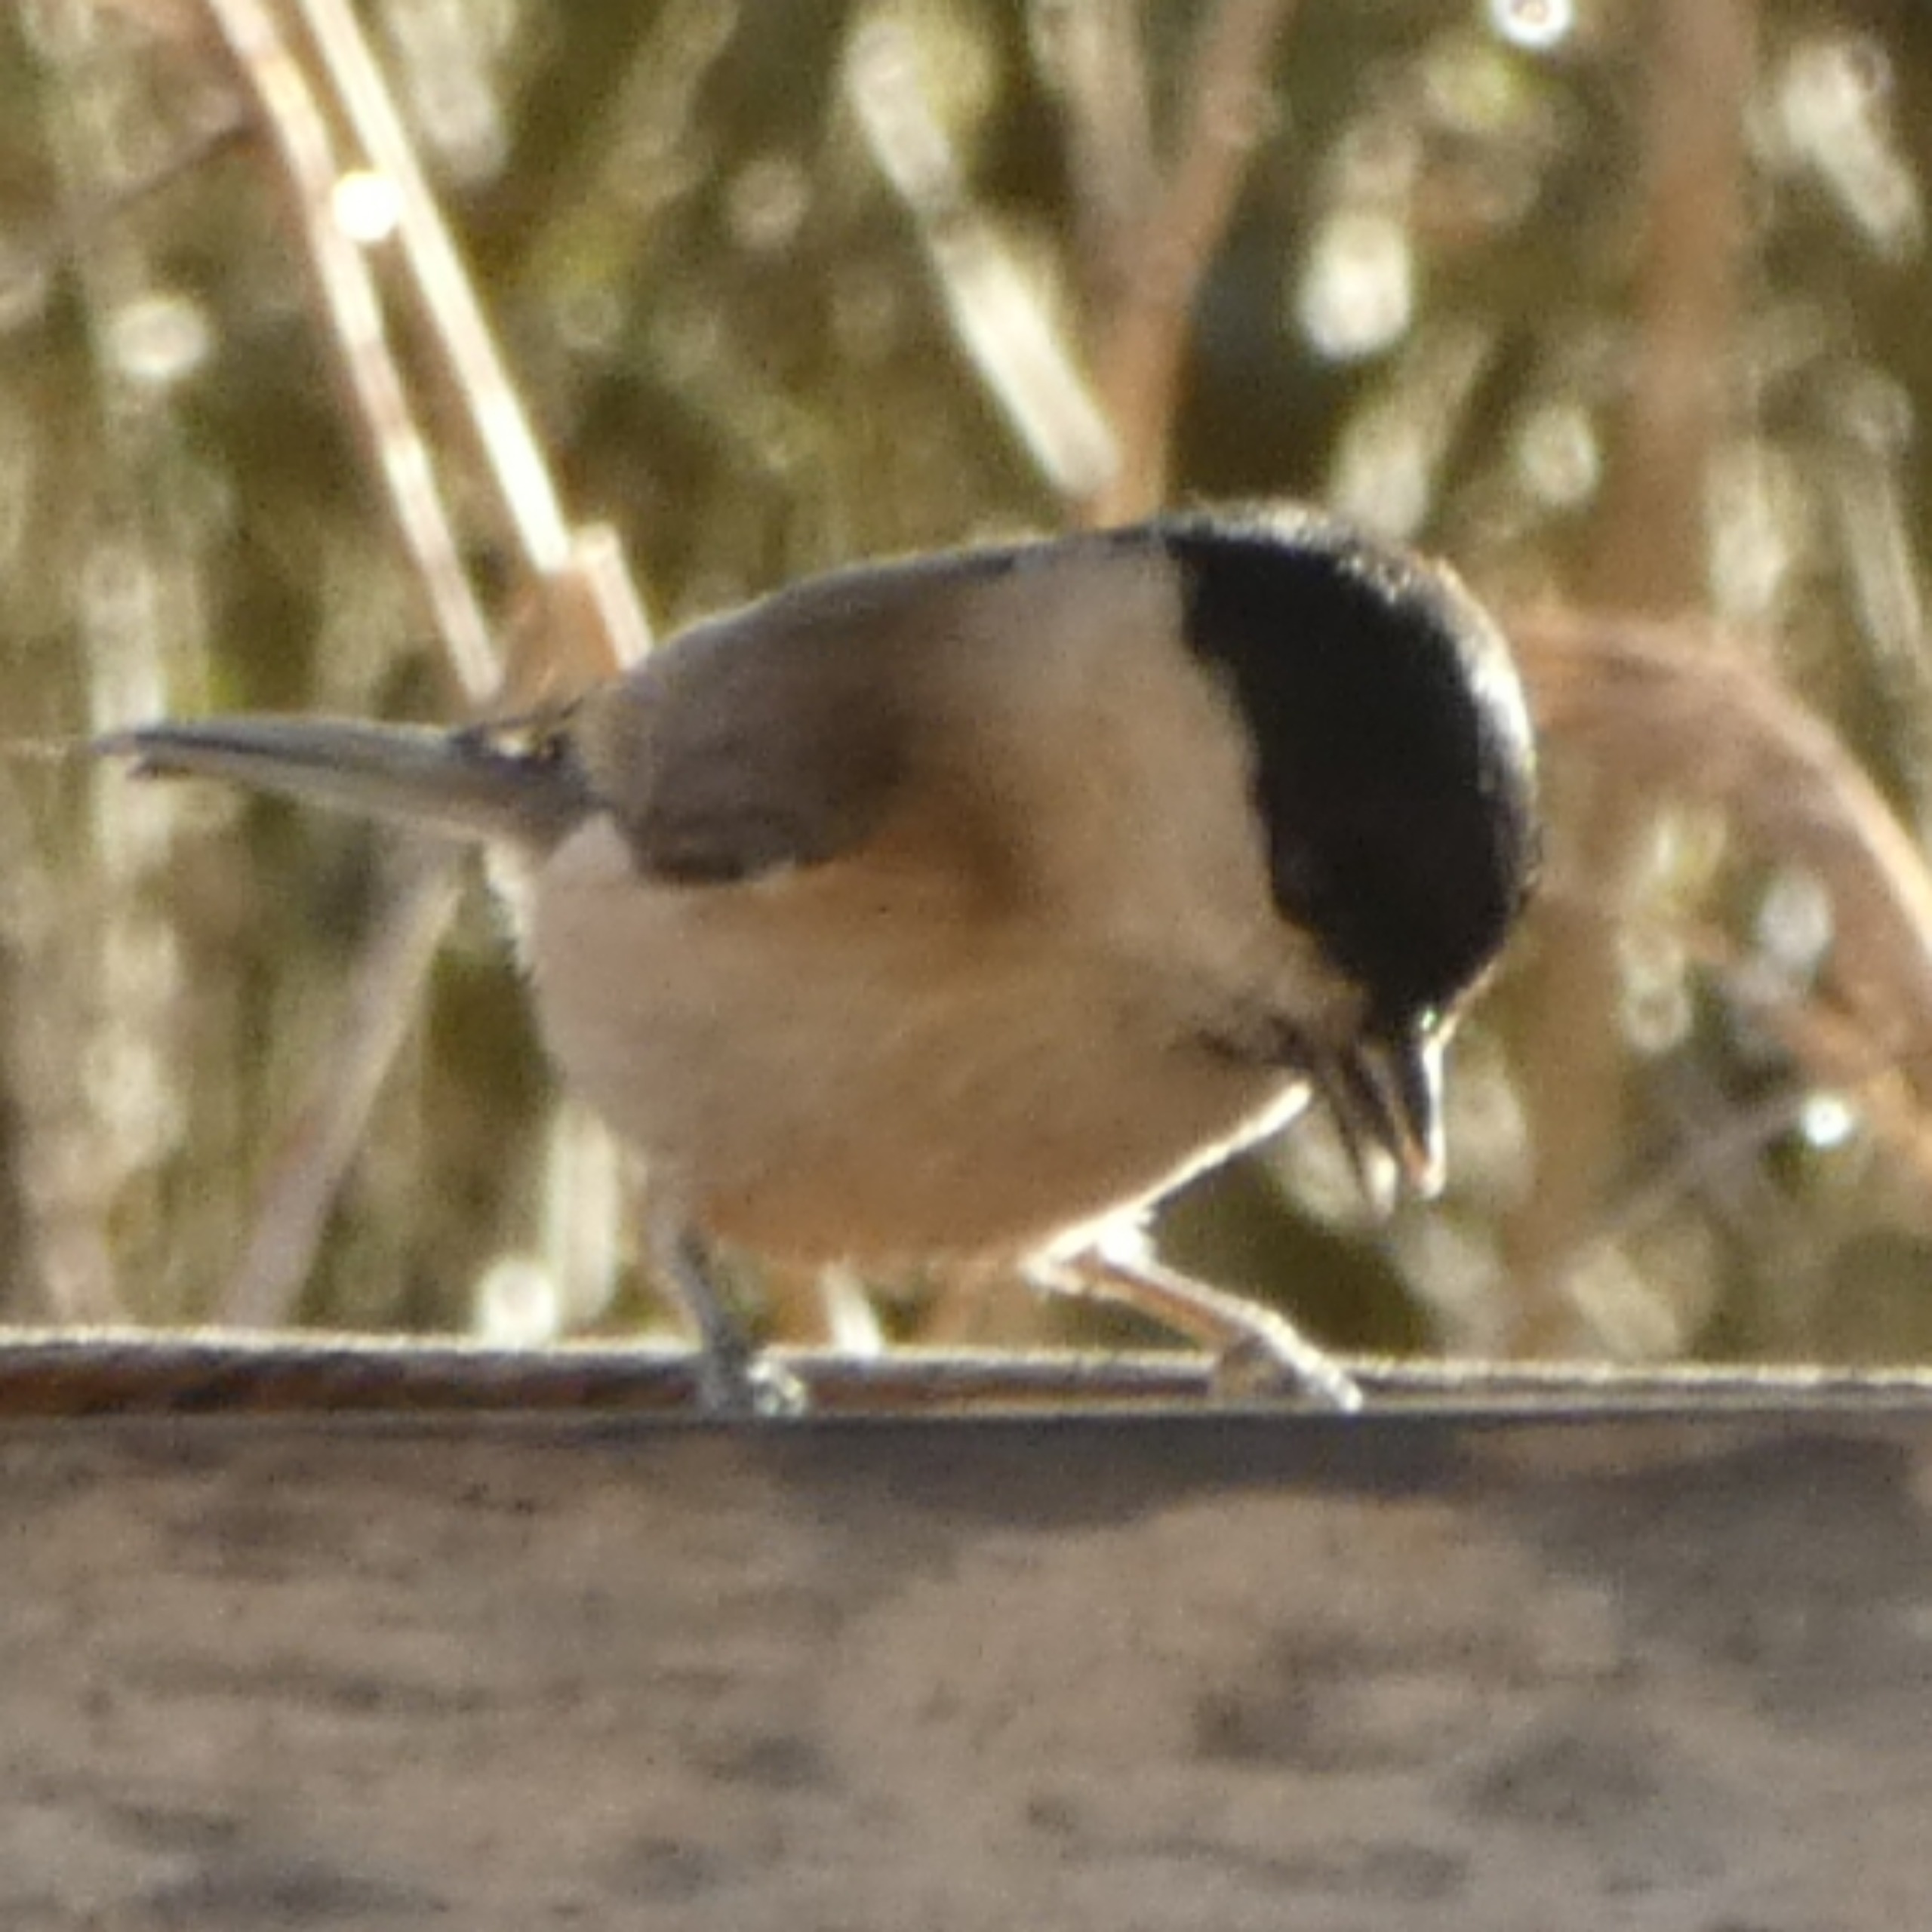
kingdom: Animalia
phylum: Chordata
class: Aves
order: Passeriformes
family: Paridae
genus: Poecile
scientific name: Poecile palustris
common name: Sumpmejse
